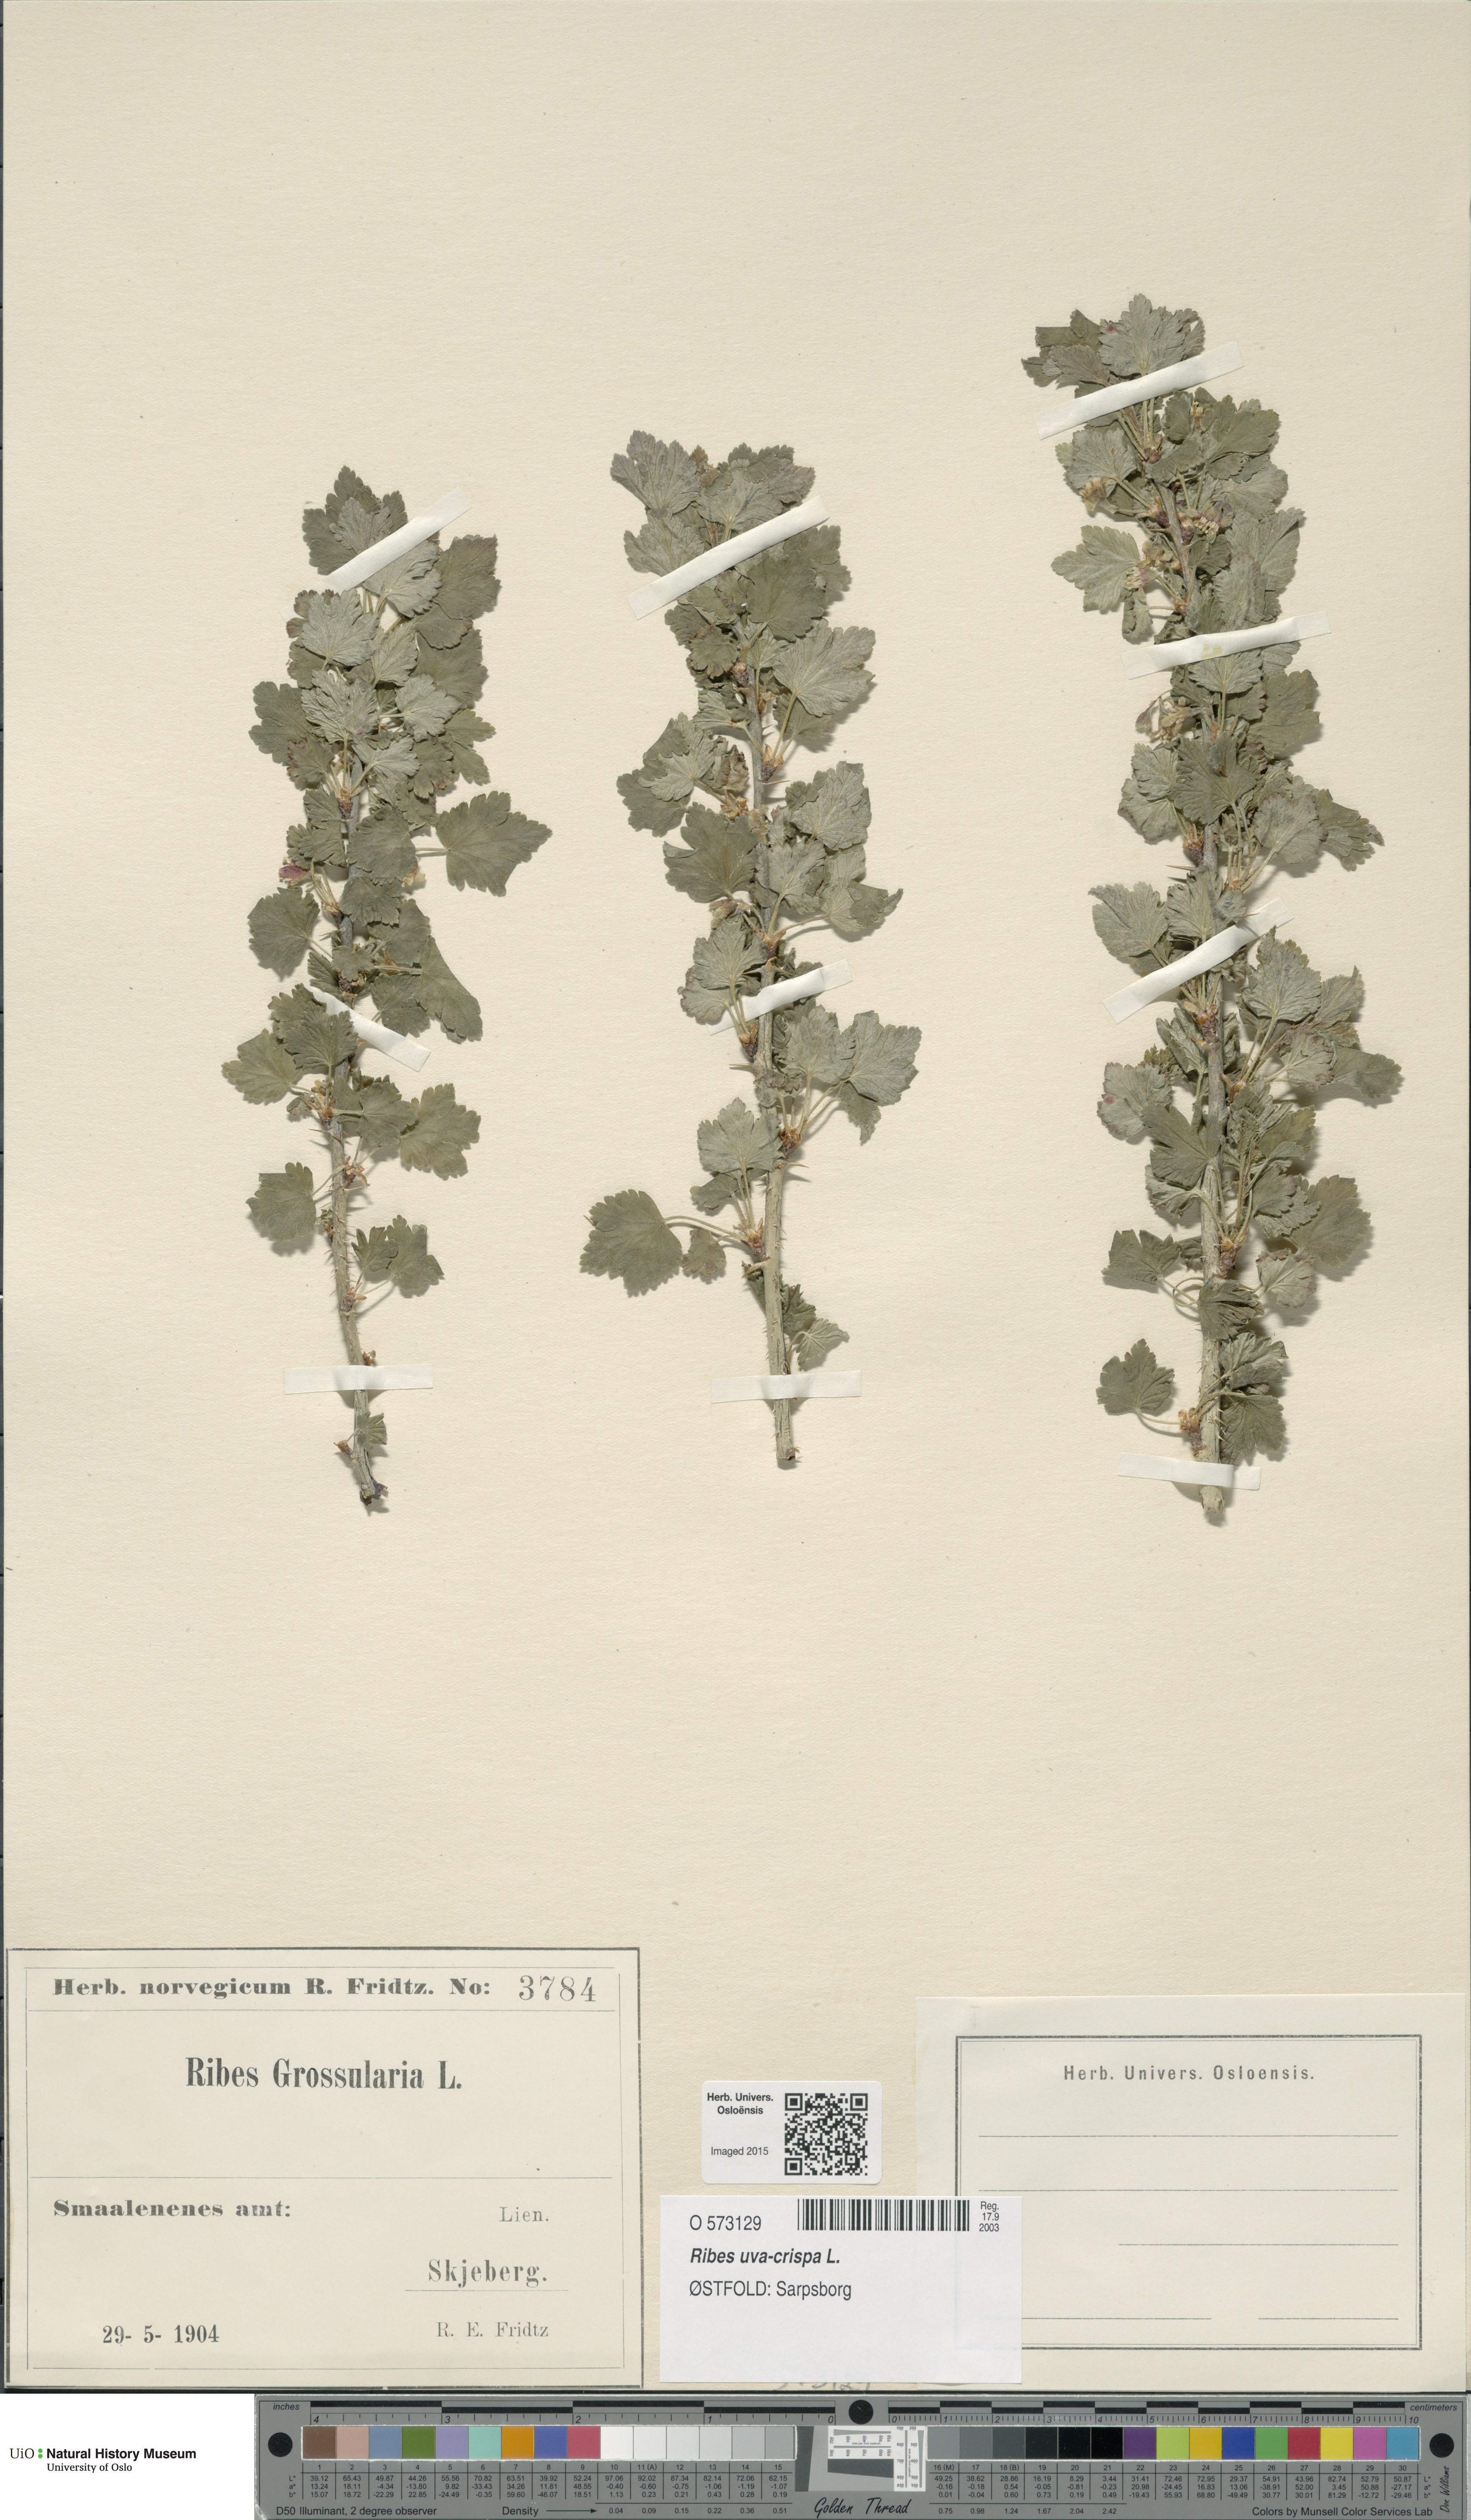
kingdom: Plantae
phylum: Tracheophyta
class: Magnoliopsida
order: Saxifragales
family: Grossulariaceae
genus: Ribes
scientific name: Ribes uva-crispa
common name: Gooseberry
